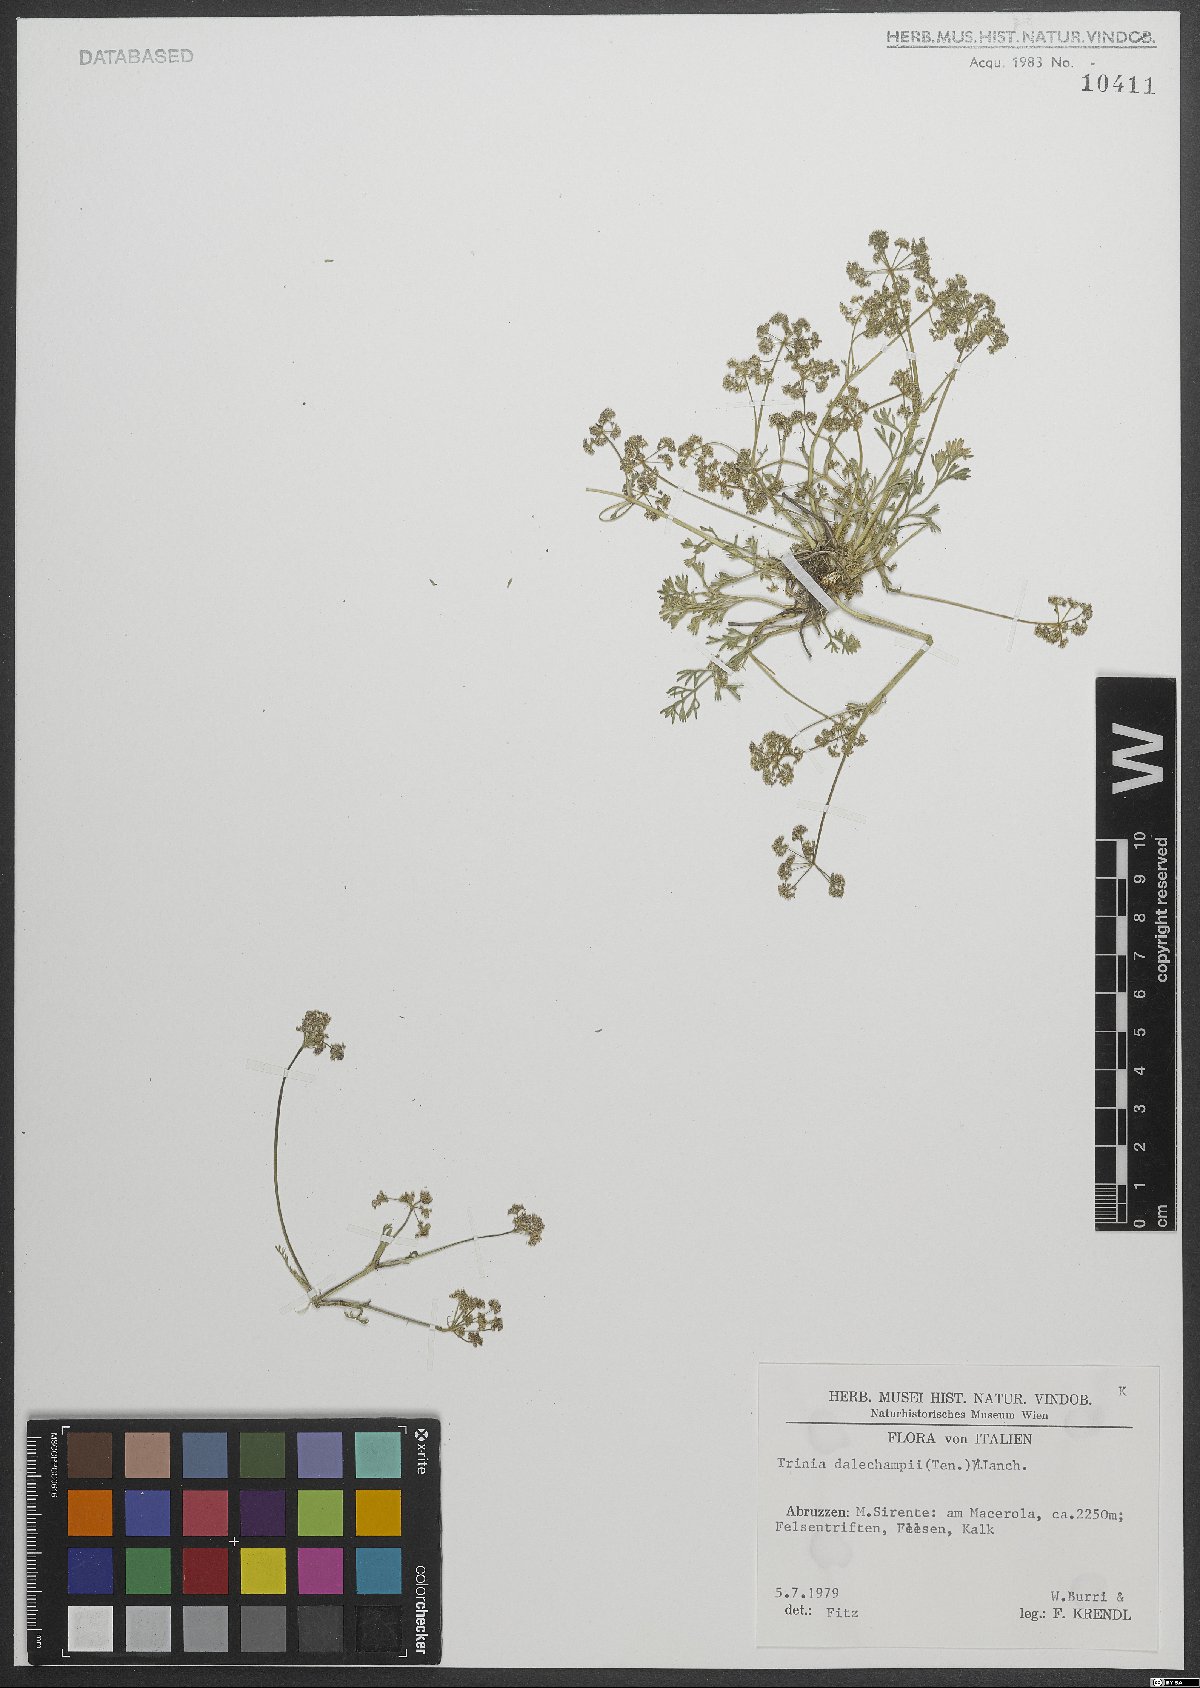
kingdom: Plantae
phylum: Tracheophyta
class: Magnoliopsida
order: Apiales
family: Apiaceae
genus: Trinia
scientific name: Trinia dalechampii
